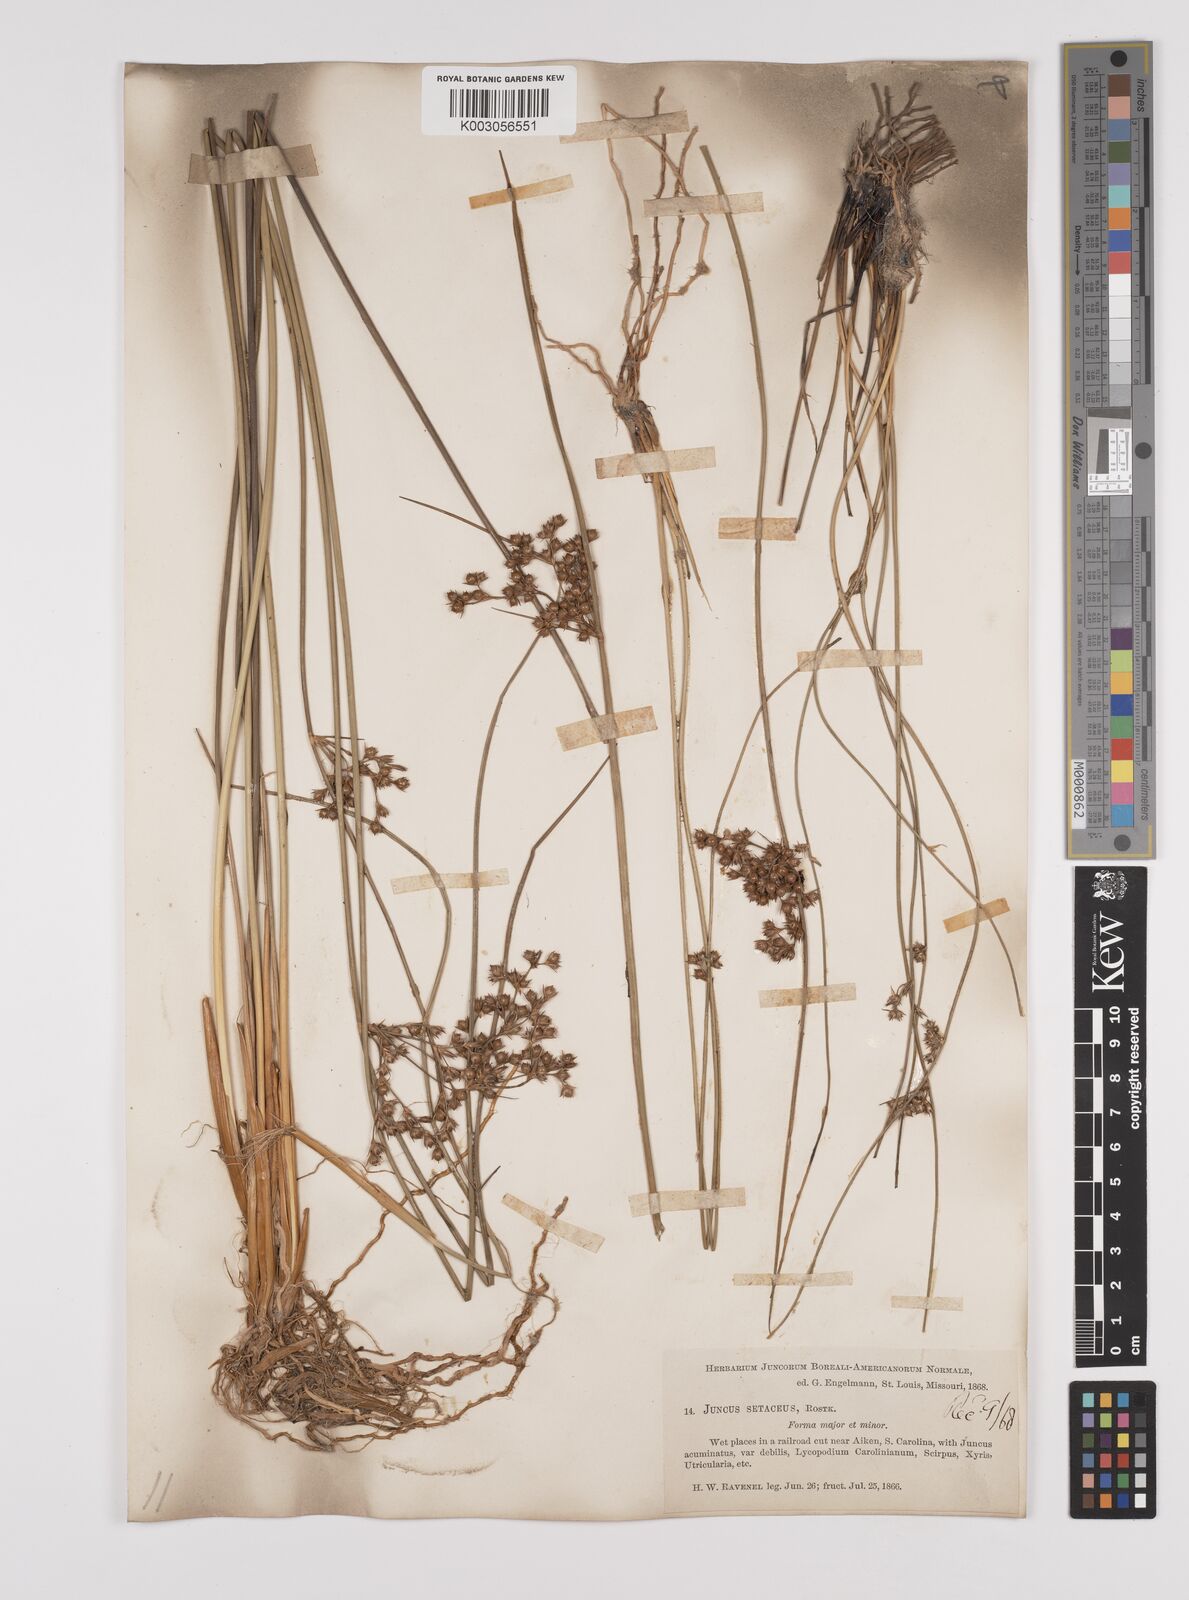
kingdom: Plantae
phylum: Tracheophyta
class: Liliopsida
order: Poales
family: Juncaceae
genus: Juncus
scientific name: Juncus balticus
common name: Baltic rush
